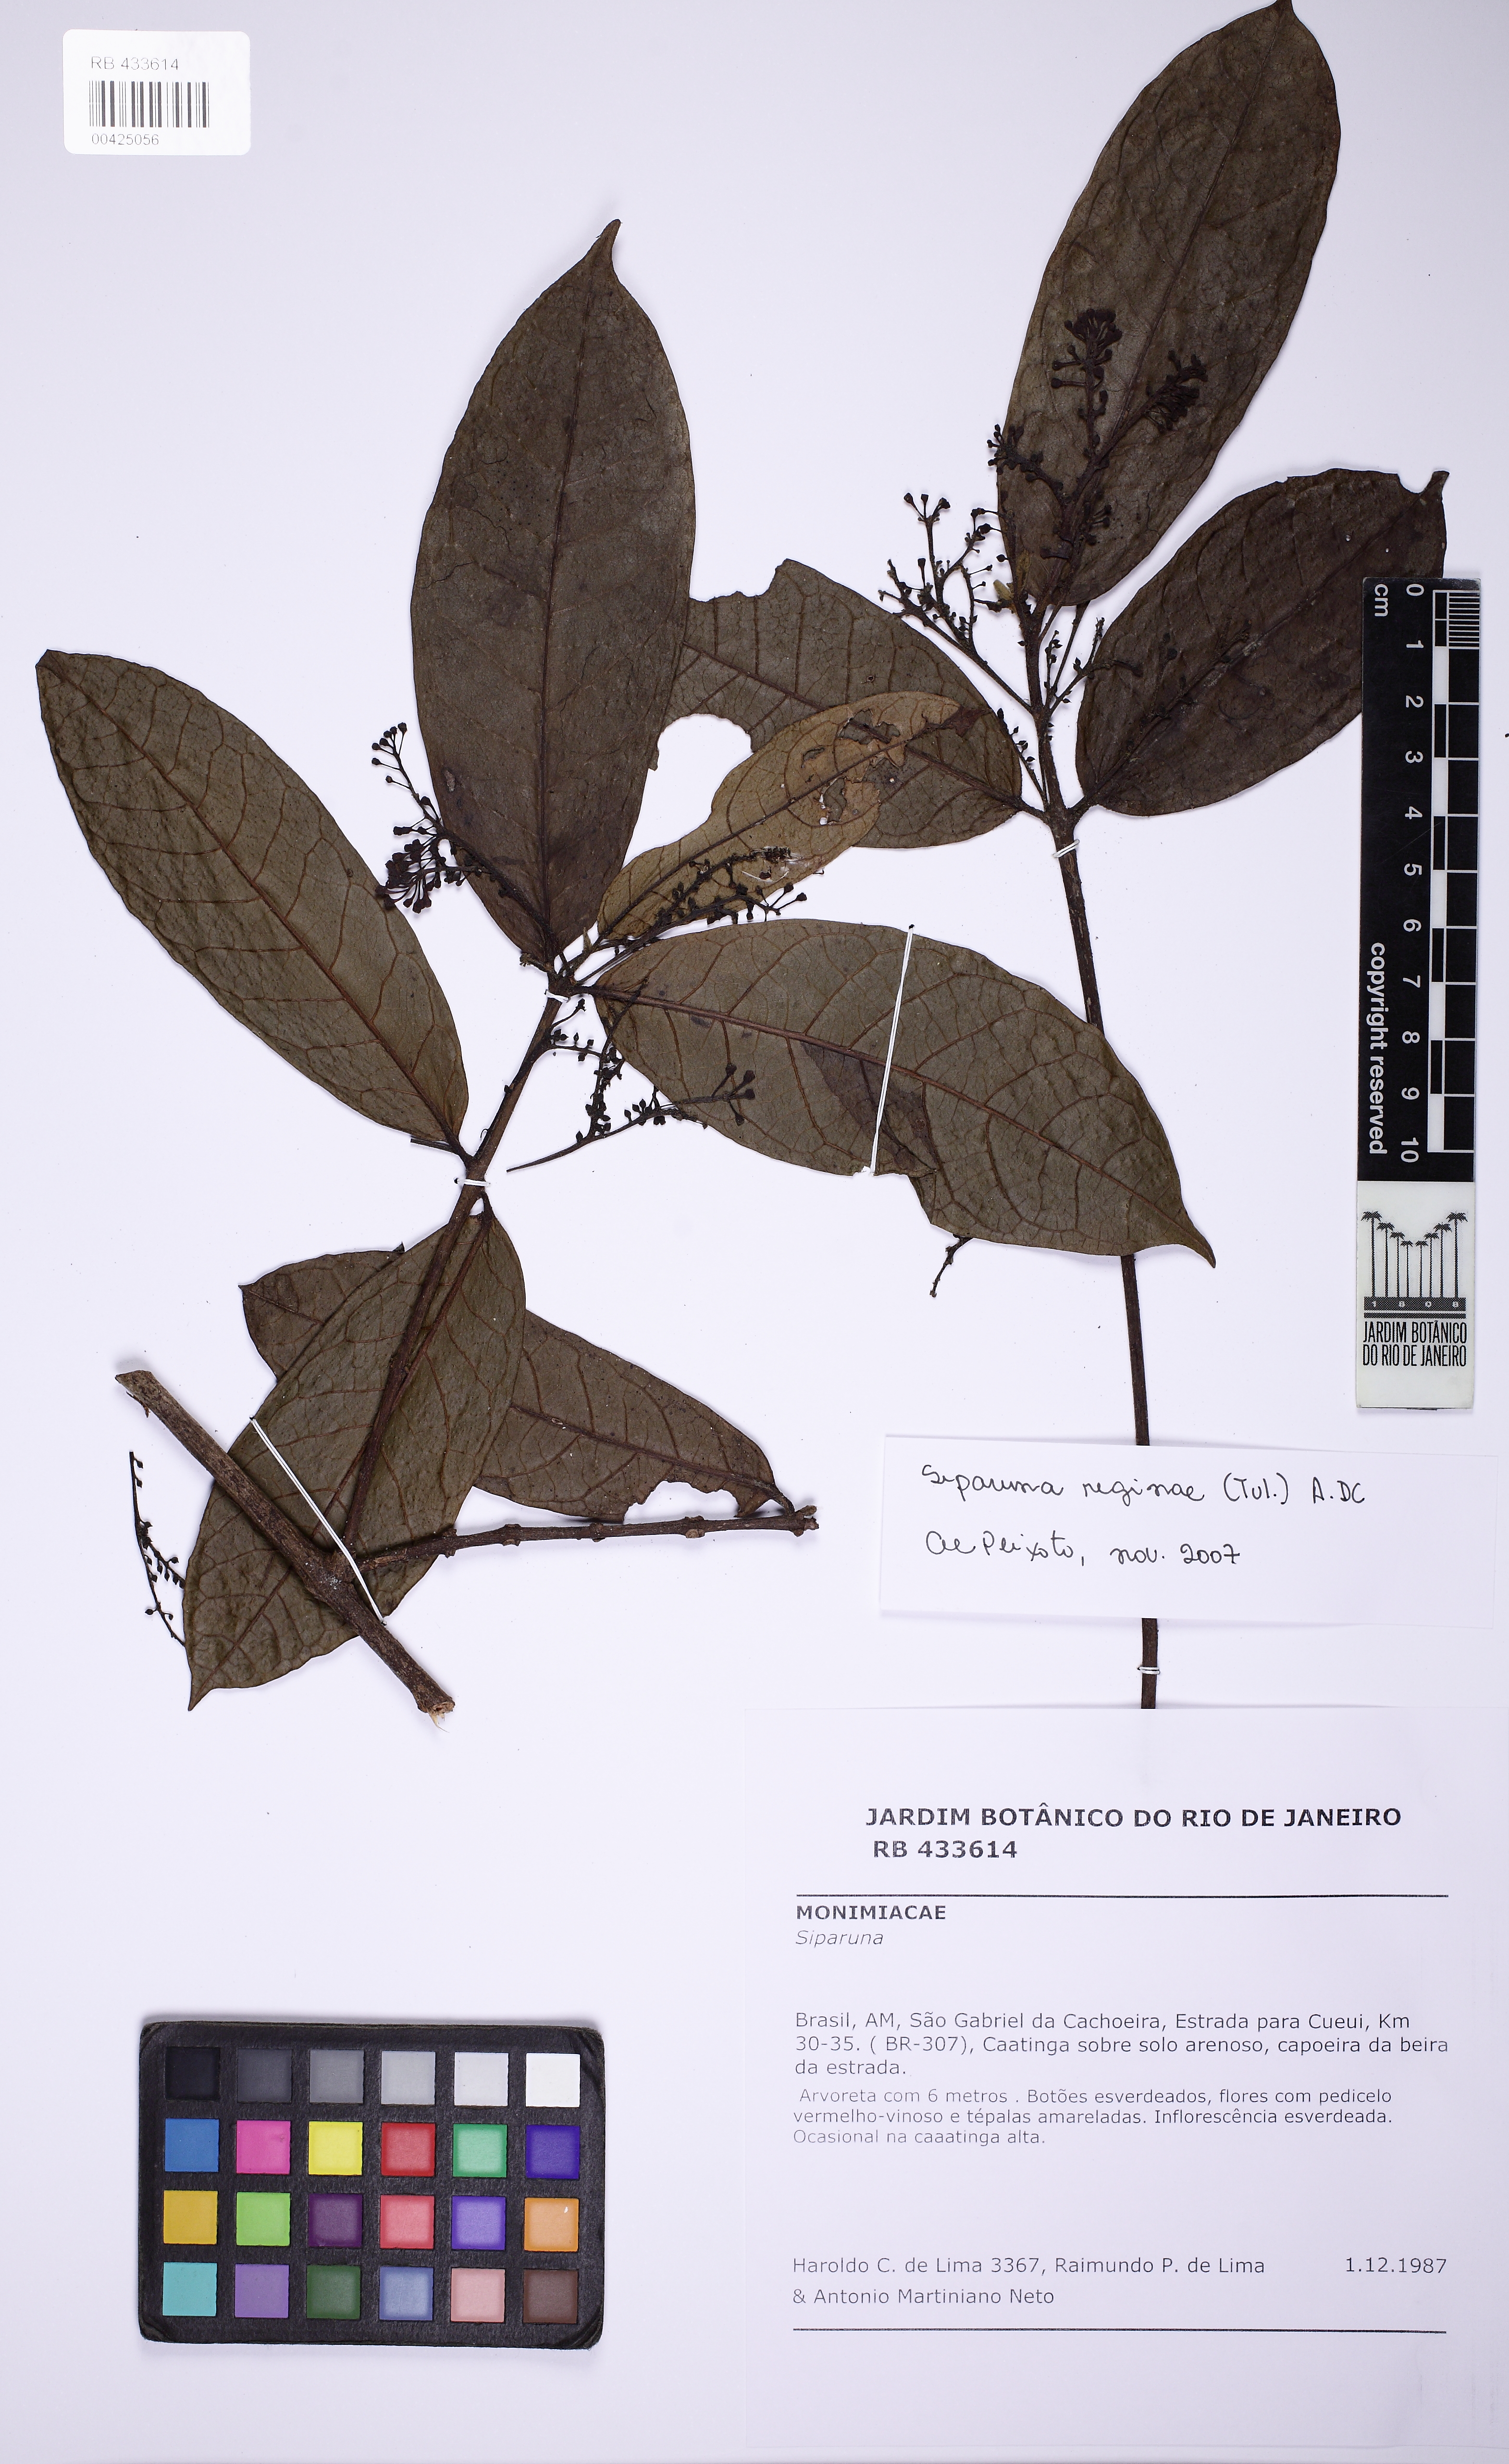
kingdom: Plantae
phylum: Tracheophyta
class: Magnoliopsida
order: Laurales
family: Siparunaceae
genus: Siparuna
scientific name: Siparuna reginae
